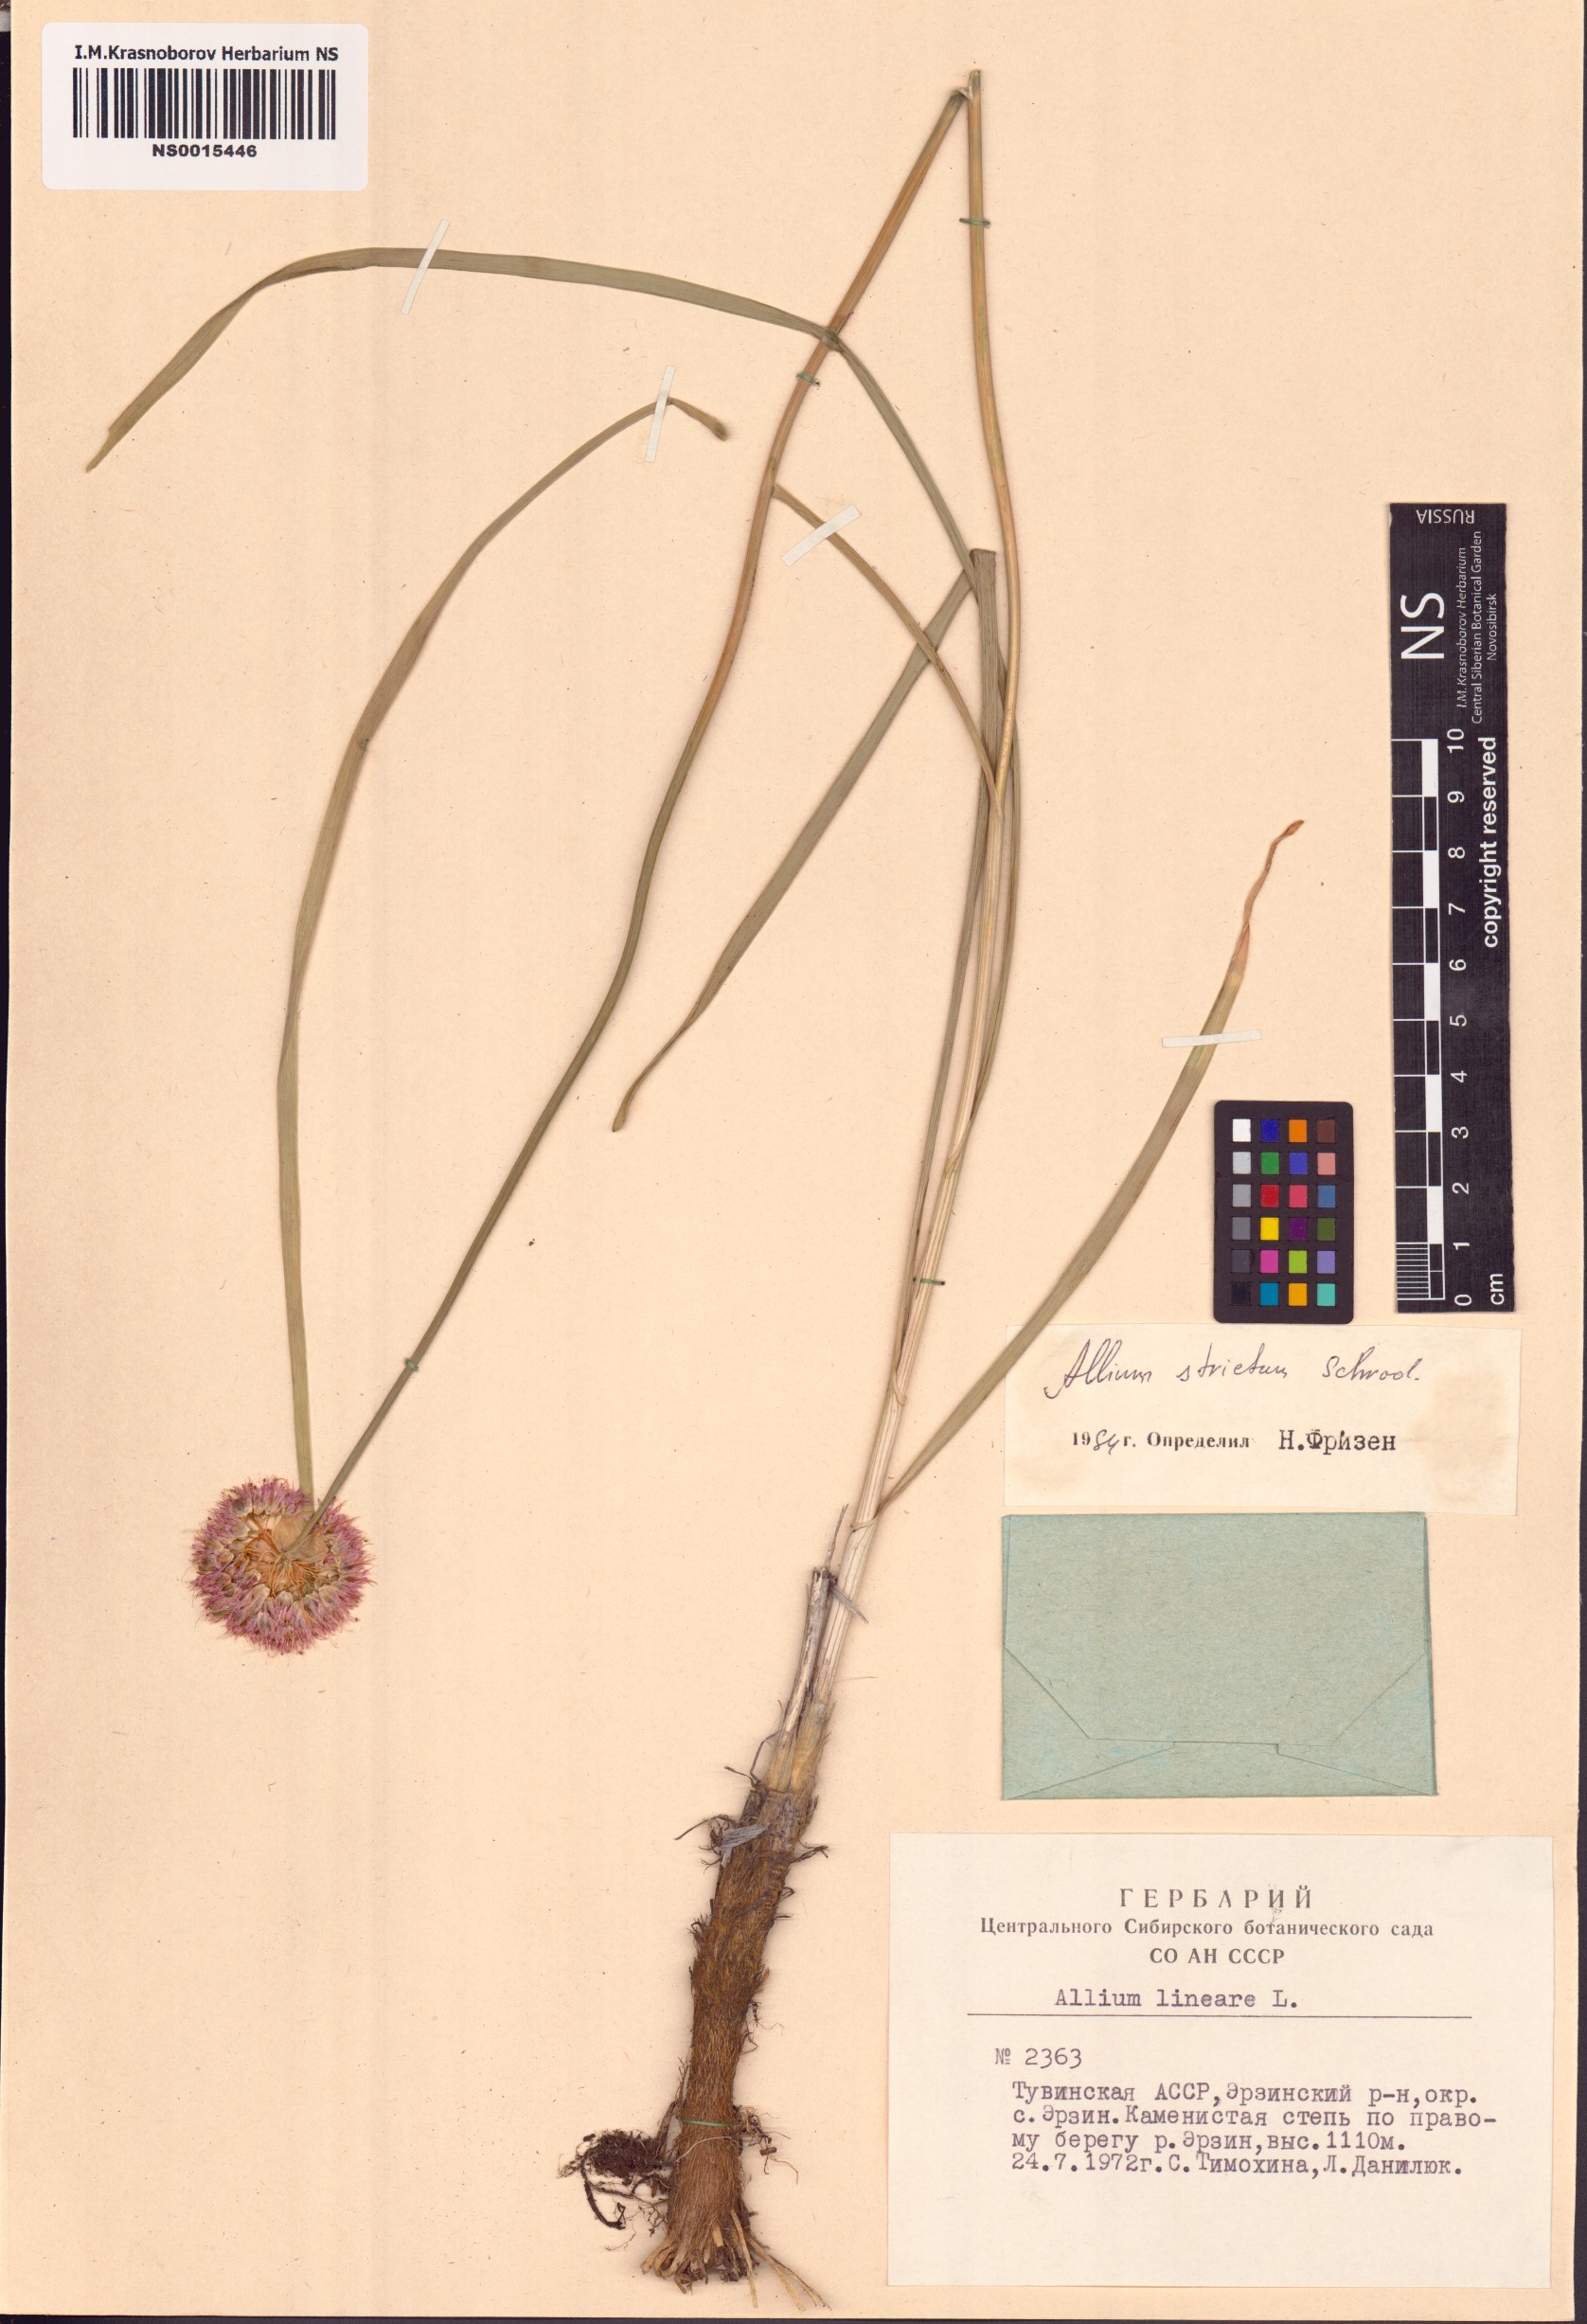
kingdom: Plantae
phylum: Tracheophyta
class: Liliopsida
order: Asparagales
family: Amaryllidaceae
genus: Allium
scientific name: Allium strictum
